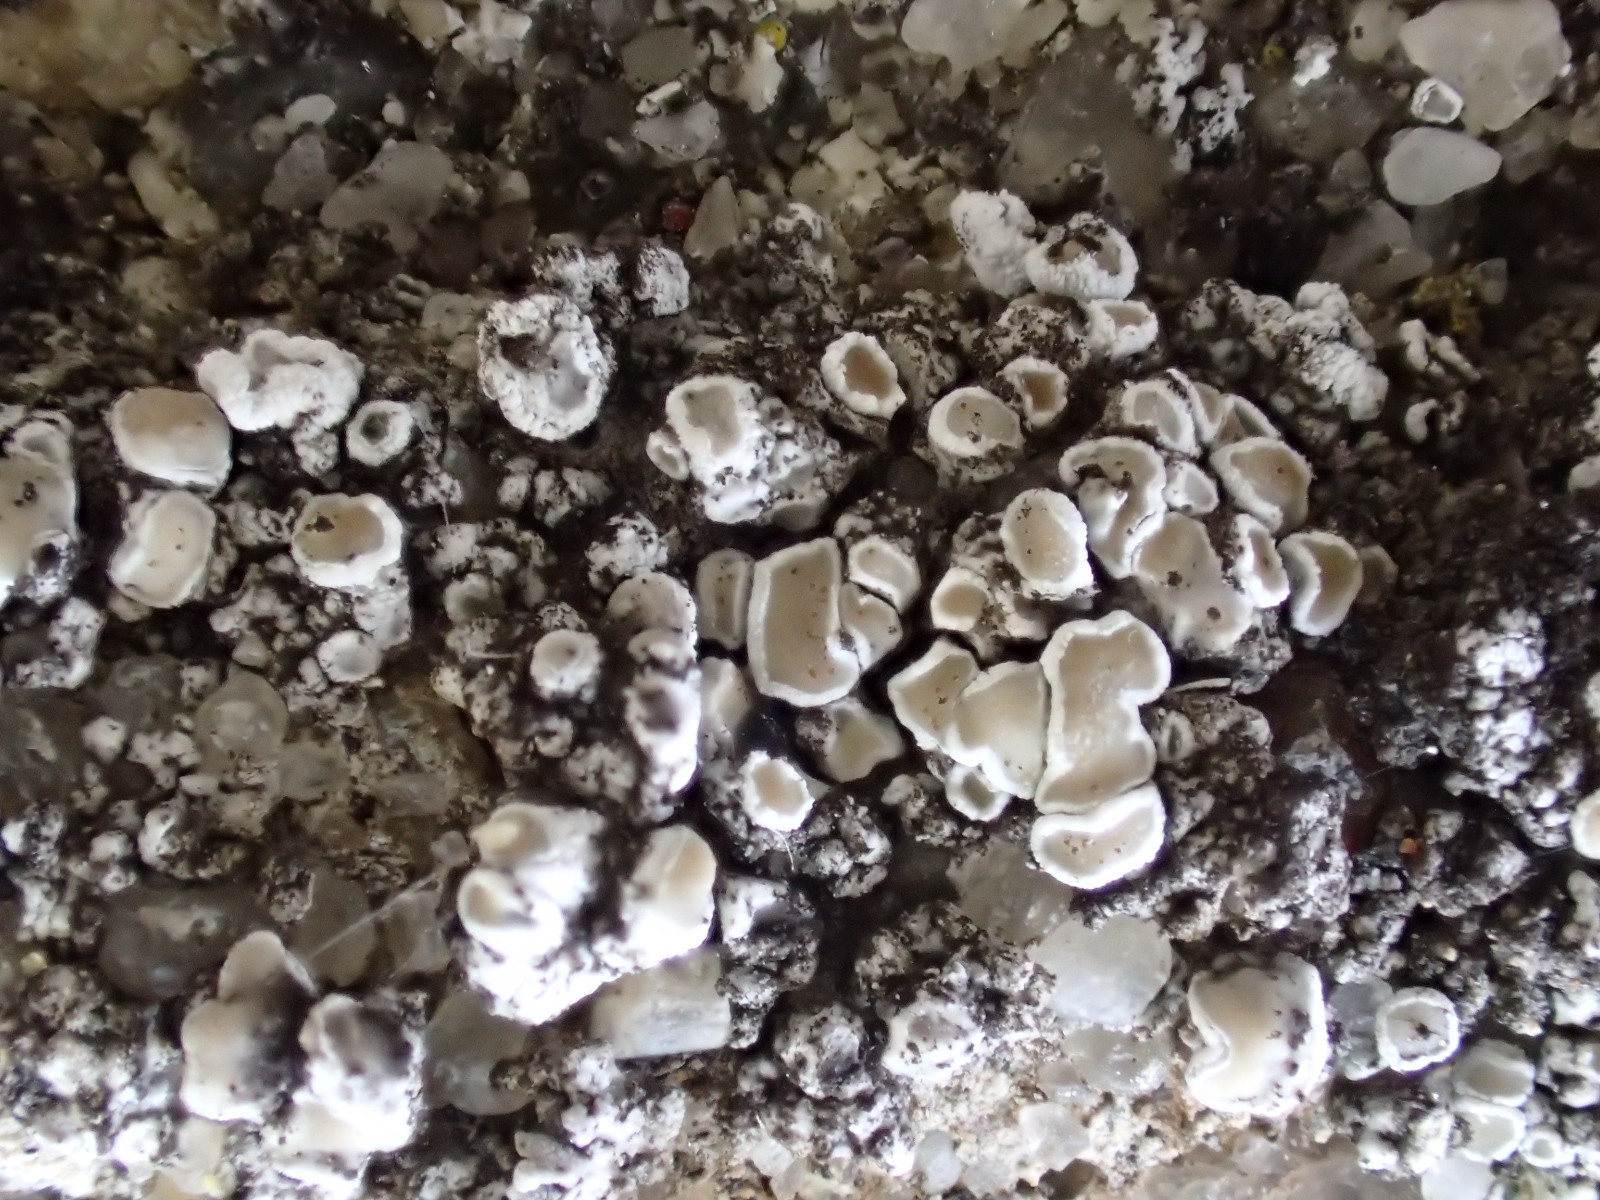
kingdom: Fungi
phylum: Ascomycota
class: Lecanoromycetes
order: Lecanorales
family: Lecanoraceae
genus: Polyozosia
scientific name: Polyozosia albescens
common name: cement-kantskivelav
